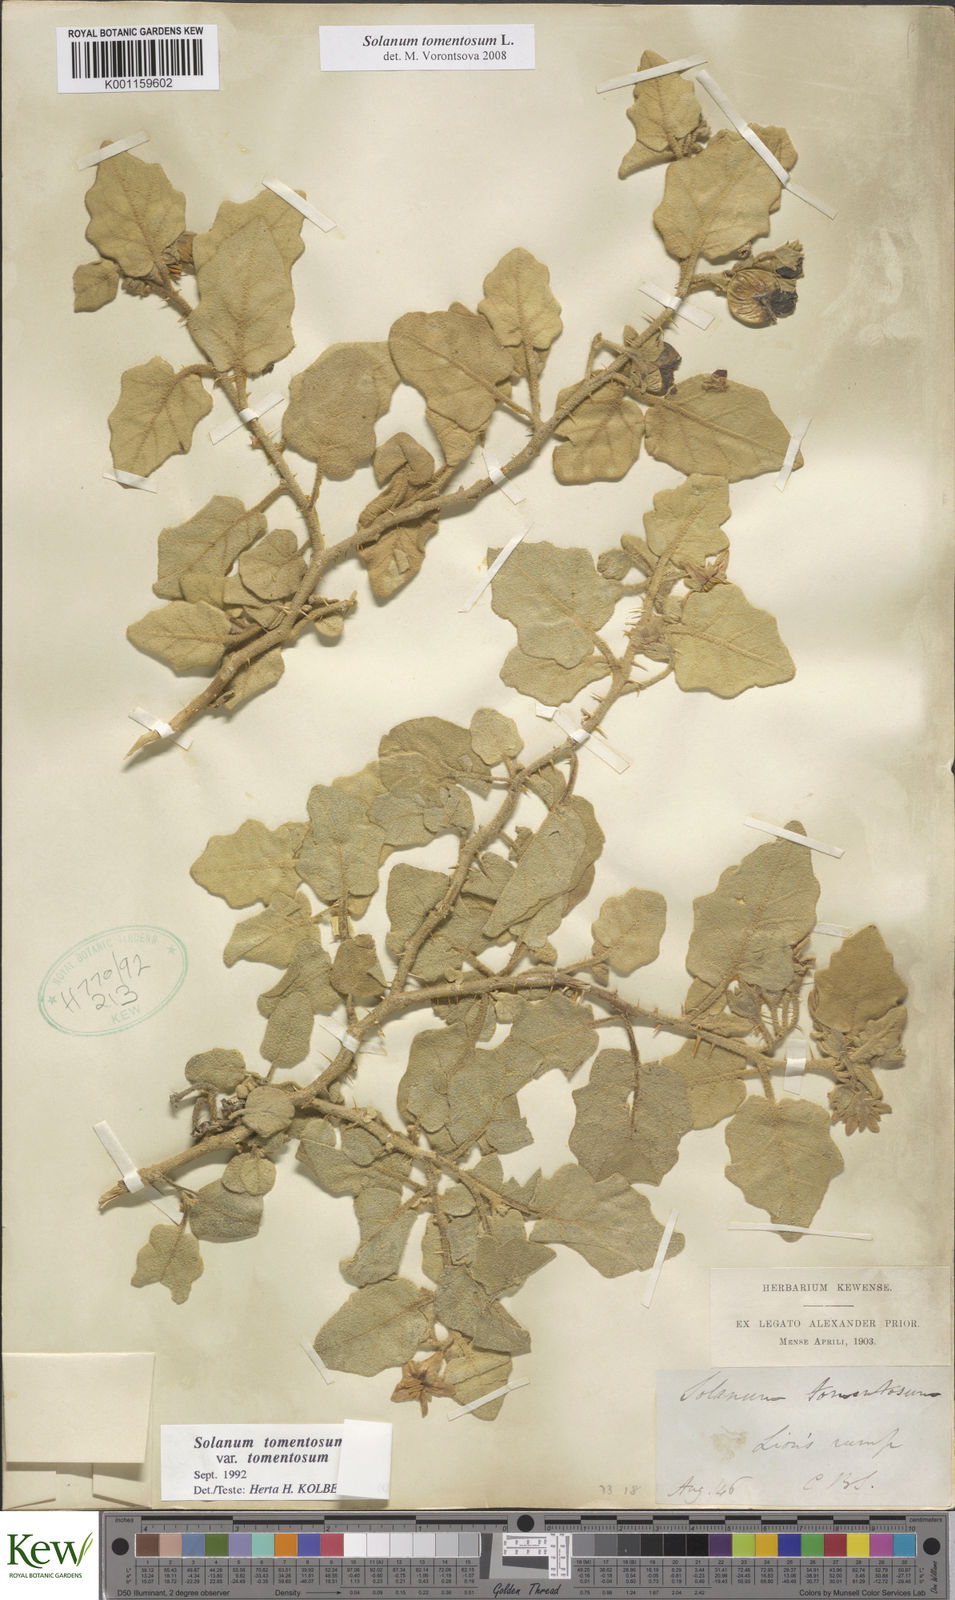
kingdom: Plantae
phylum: Tracheophyta
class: Magnoliopsida
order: Solanales
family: Solanaceae
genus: Solanum
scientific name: Solanum tomentosum
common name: Wild aubergine
